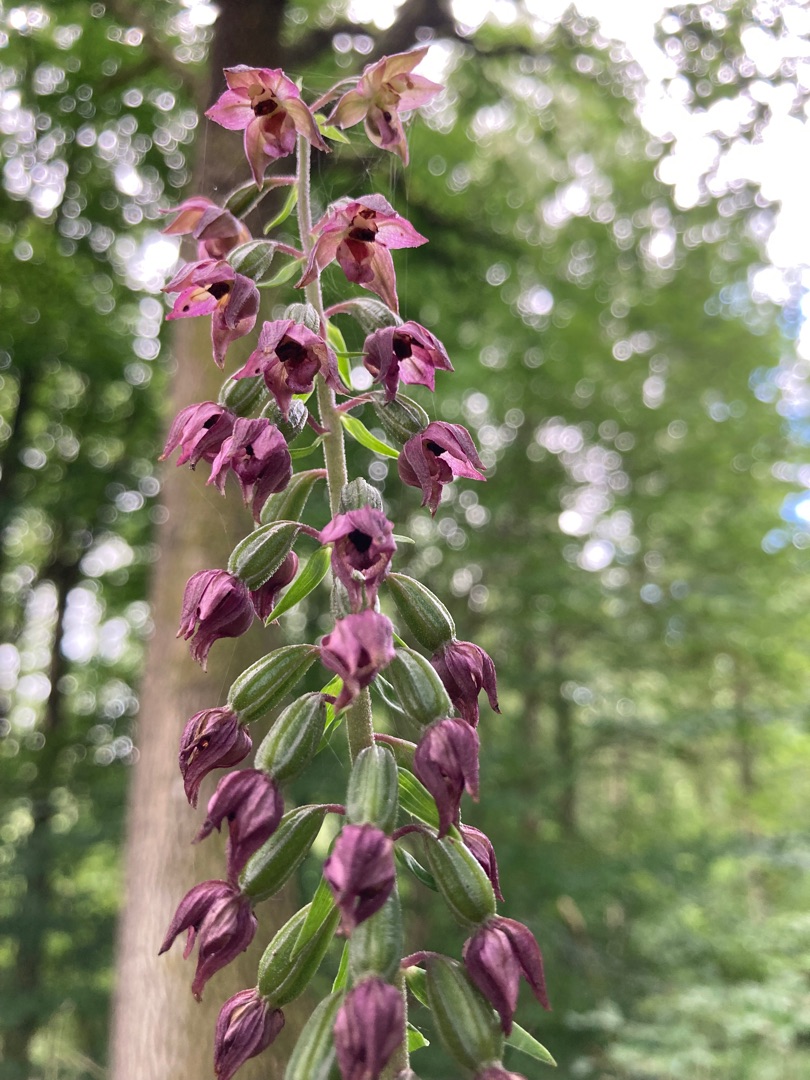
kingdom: Plantae
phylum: Tracheophyta
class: Liliopsida
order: Asparagales
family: Orchidaceae
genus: Epipactis
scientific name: Epipactis helleborine
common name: Skov-hullæbe
